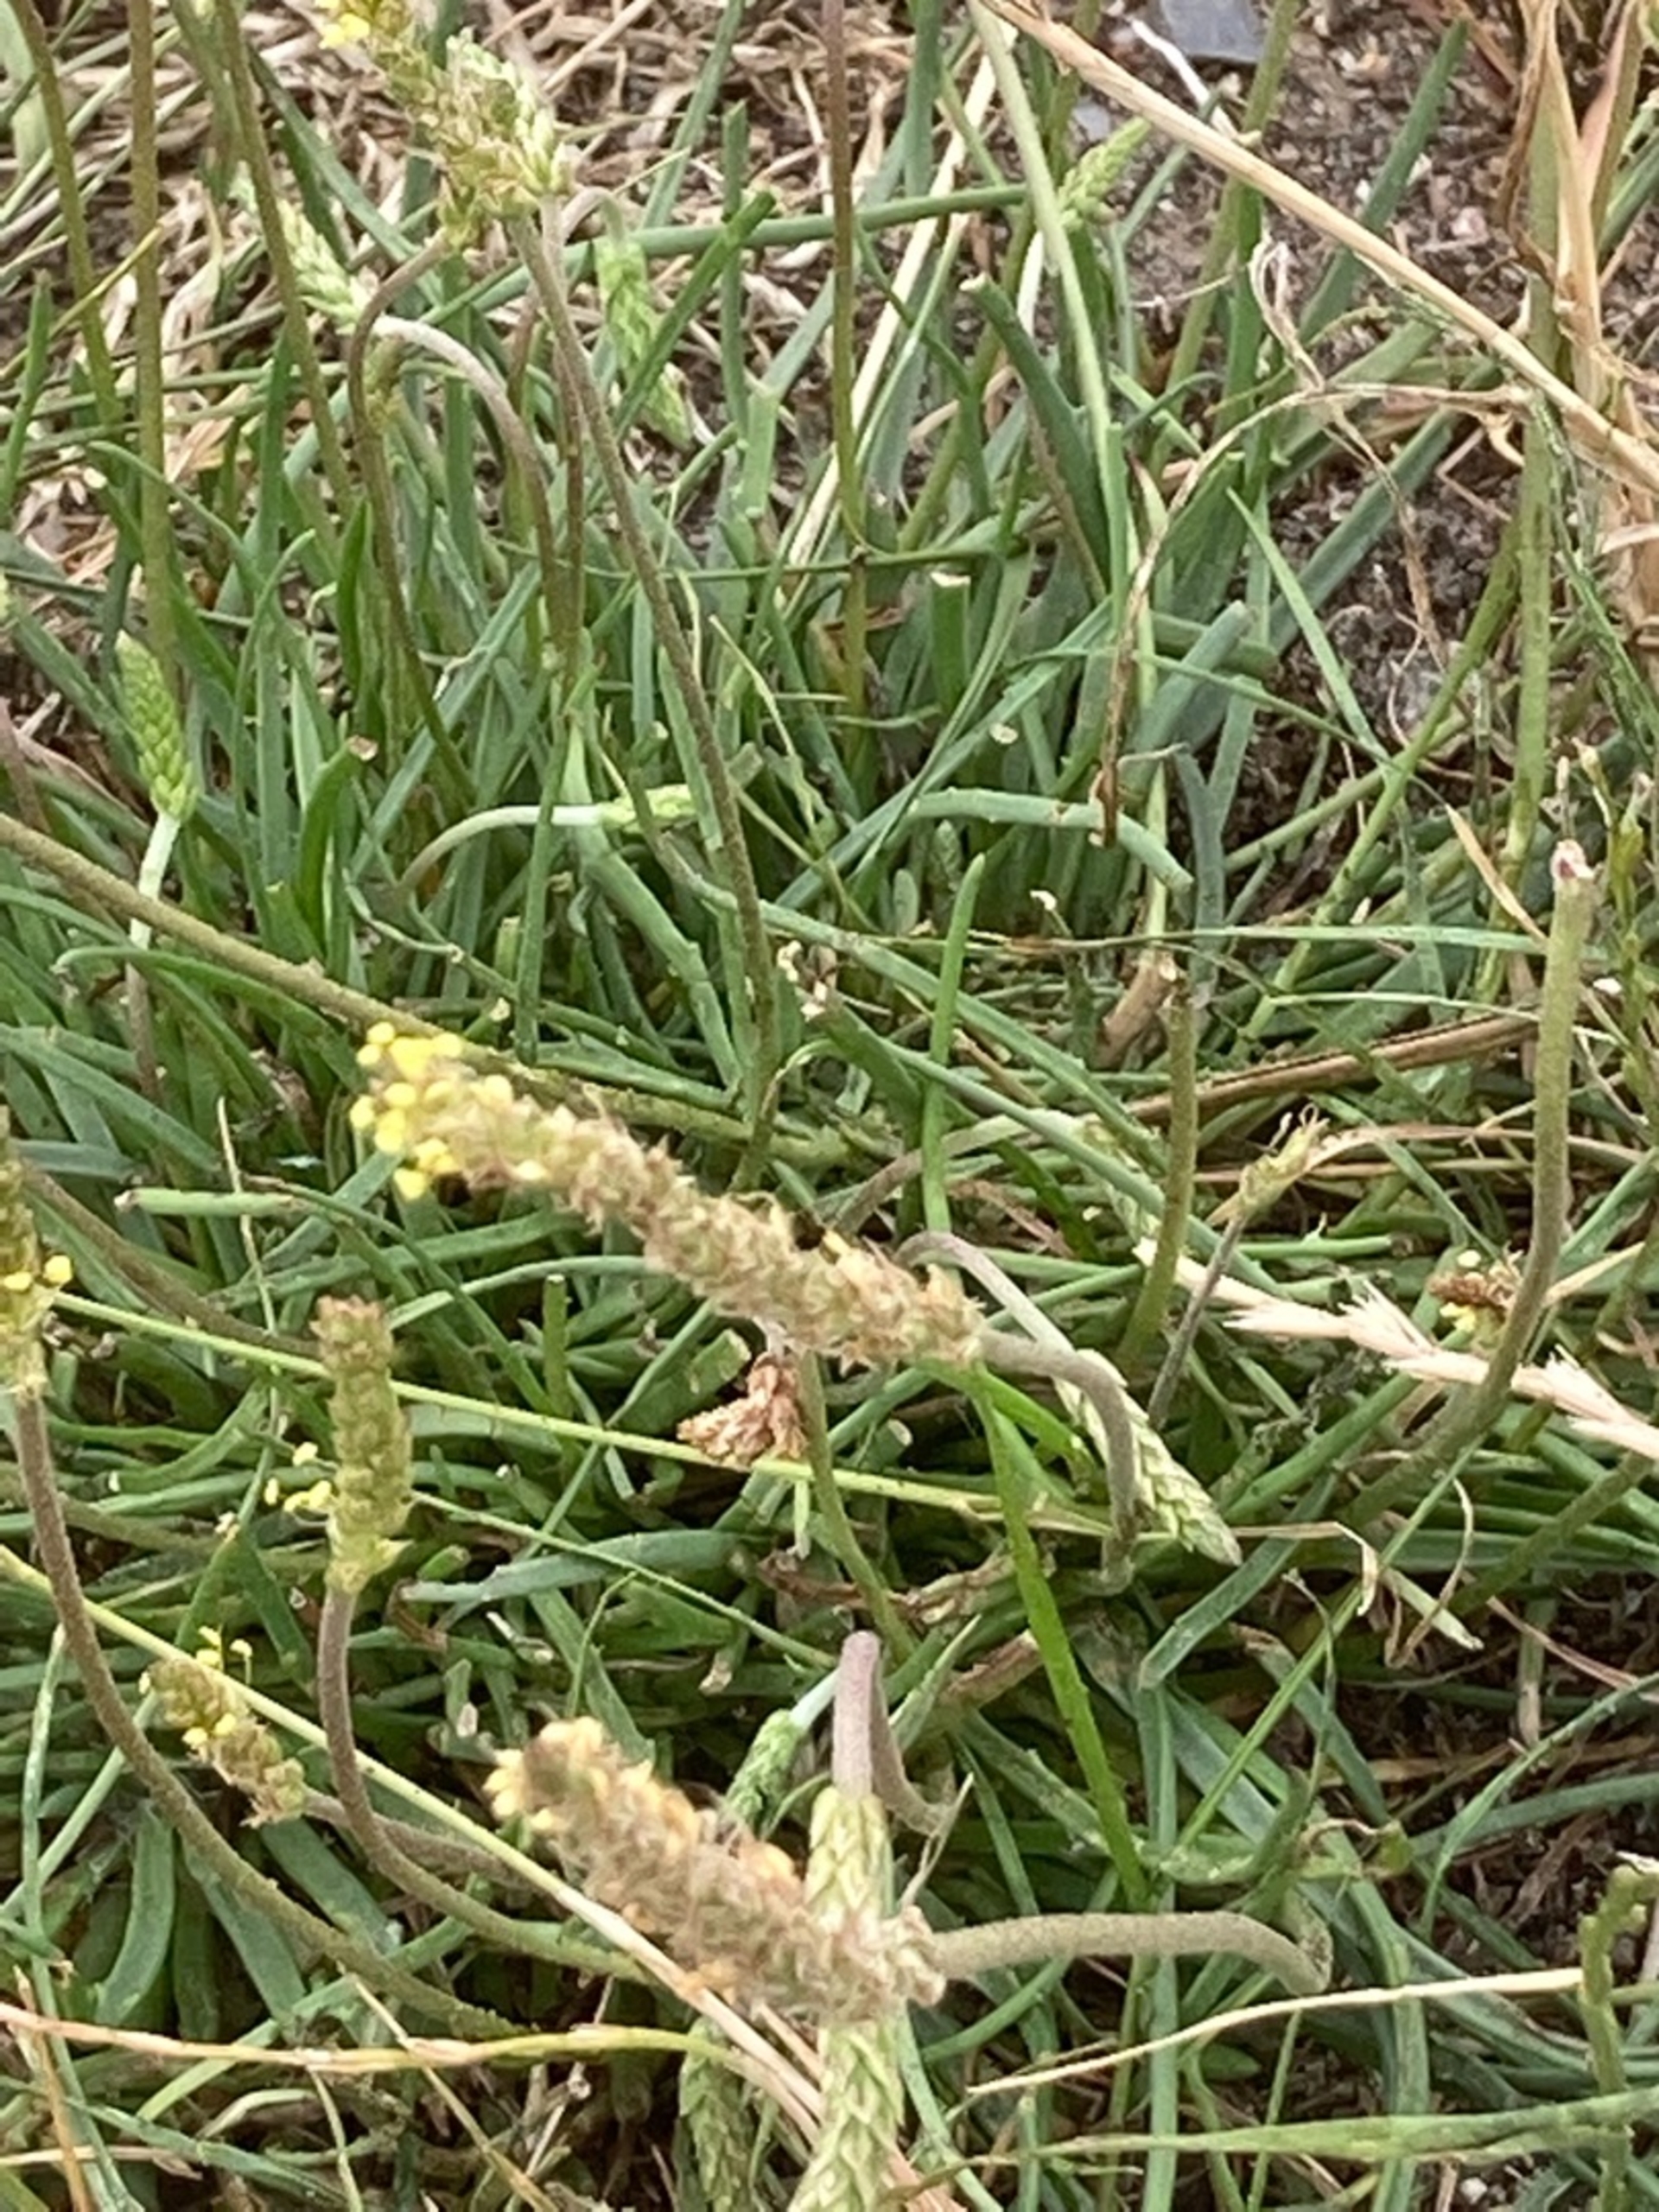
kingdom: Plantae
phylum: Tracheophyta
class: Magnoliopsida
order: Lamiales
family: Plantaginaceae
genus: Plantago
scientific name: Plantago maritima
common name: Strand-vejbred
